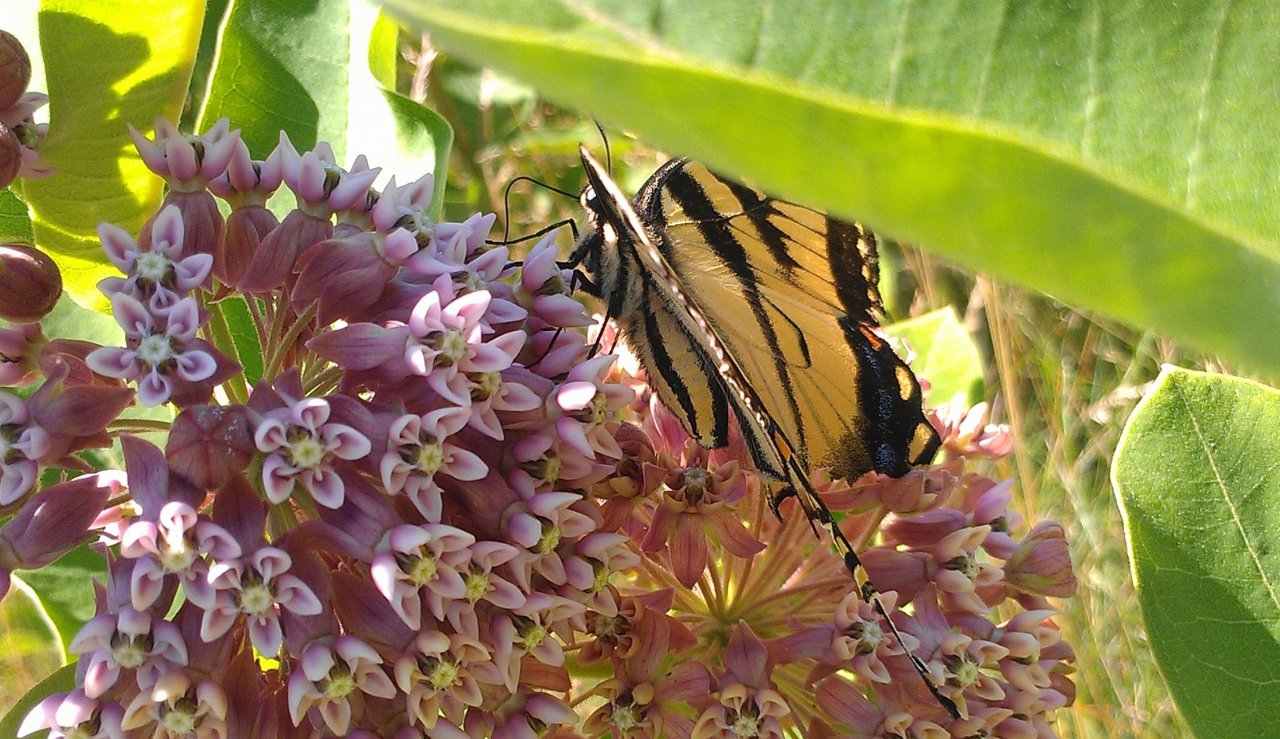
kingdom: Animalia
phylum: Arthropoda
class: Insecta
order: Lepidoptera
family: Papilionidae
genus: Pterourus
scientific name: Pterourus canadensis
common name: Canadian Tiger Swallowtail
